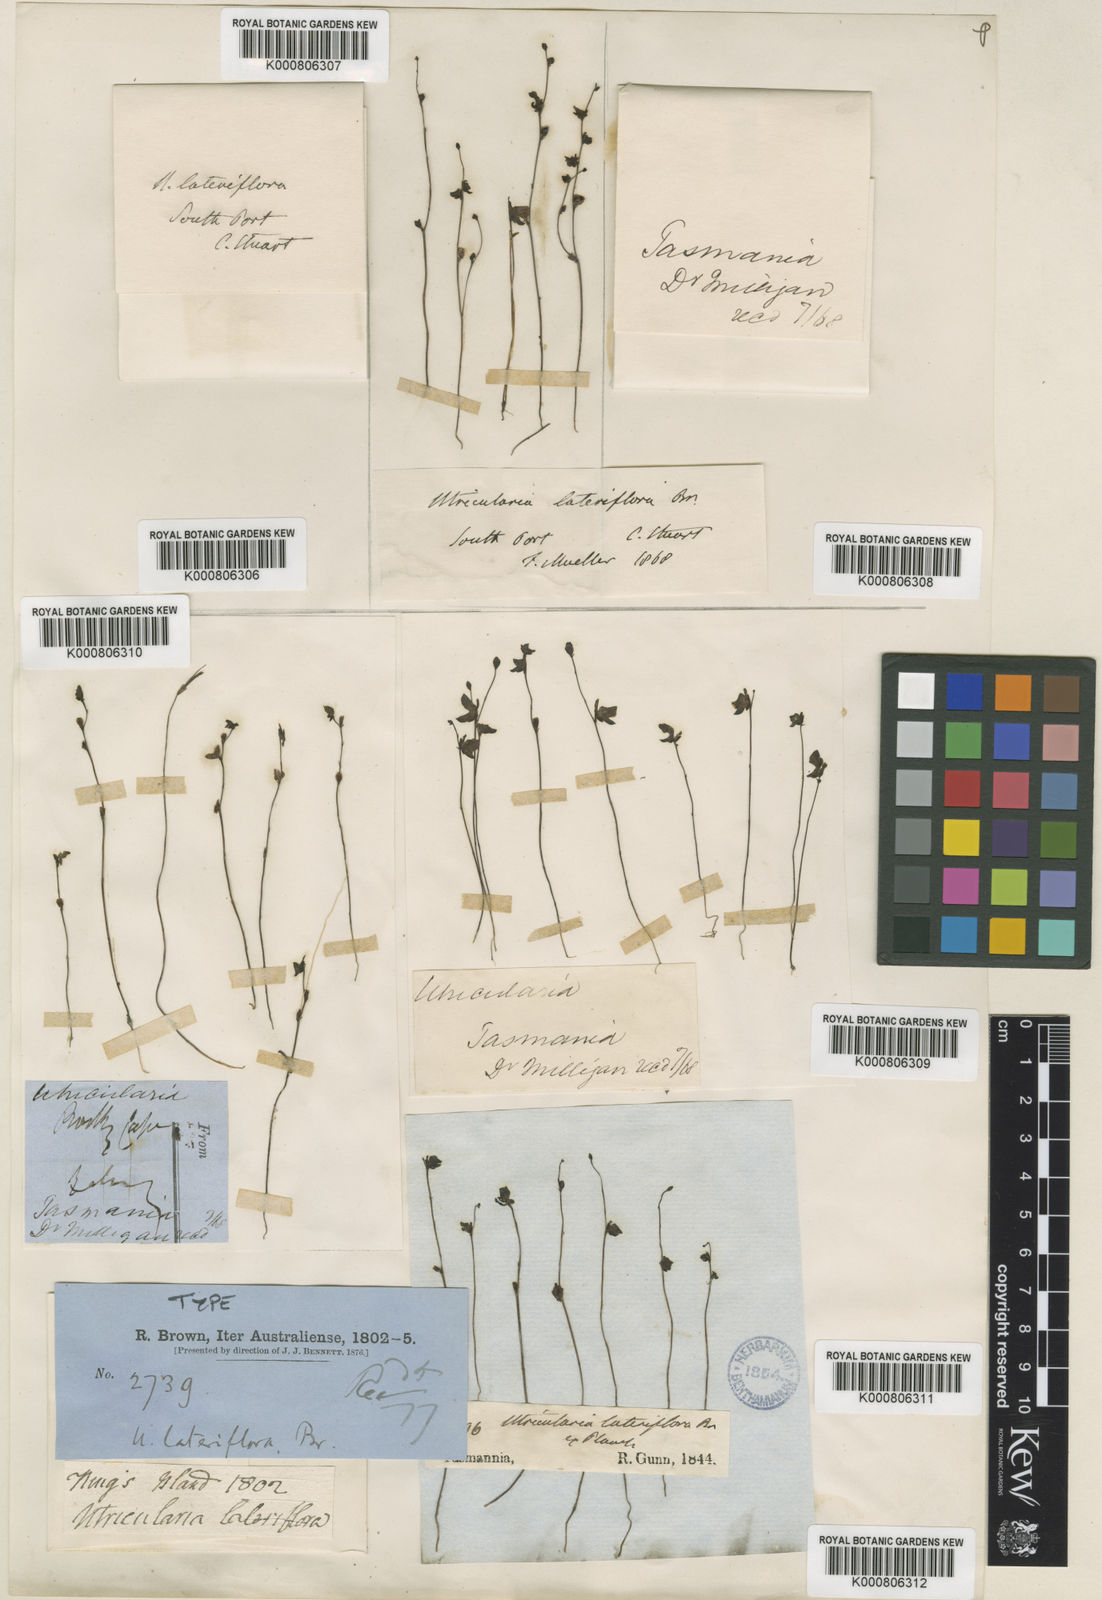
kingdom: Plantae
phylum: Tracheophyta
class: Magnoliopsida
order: Lamiales
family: Lentibulariaceae
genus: Utricularia
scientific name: Utricularia lateriflora
